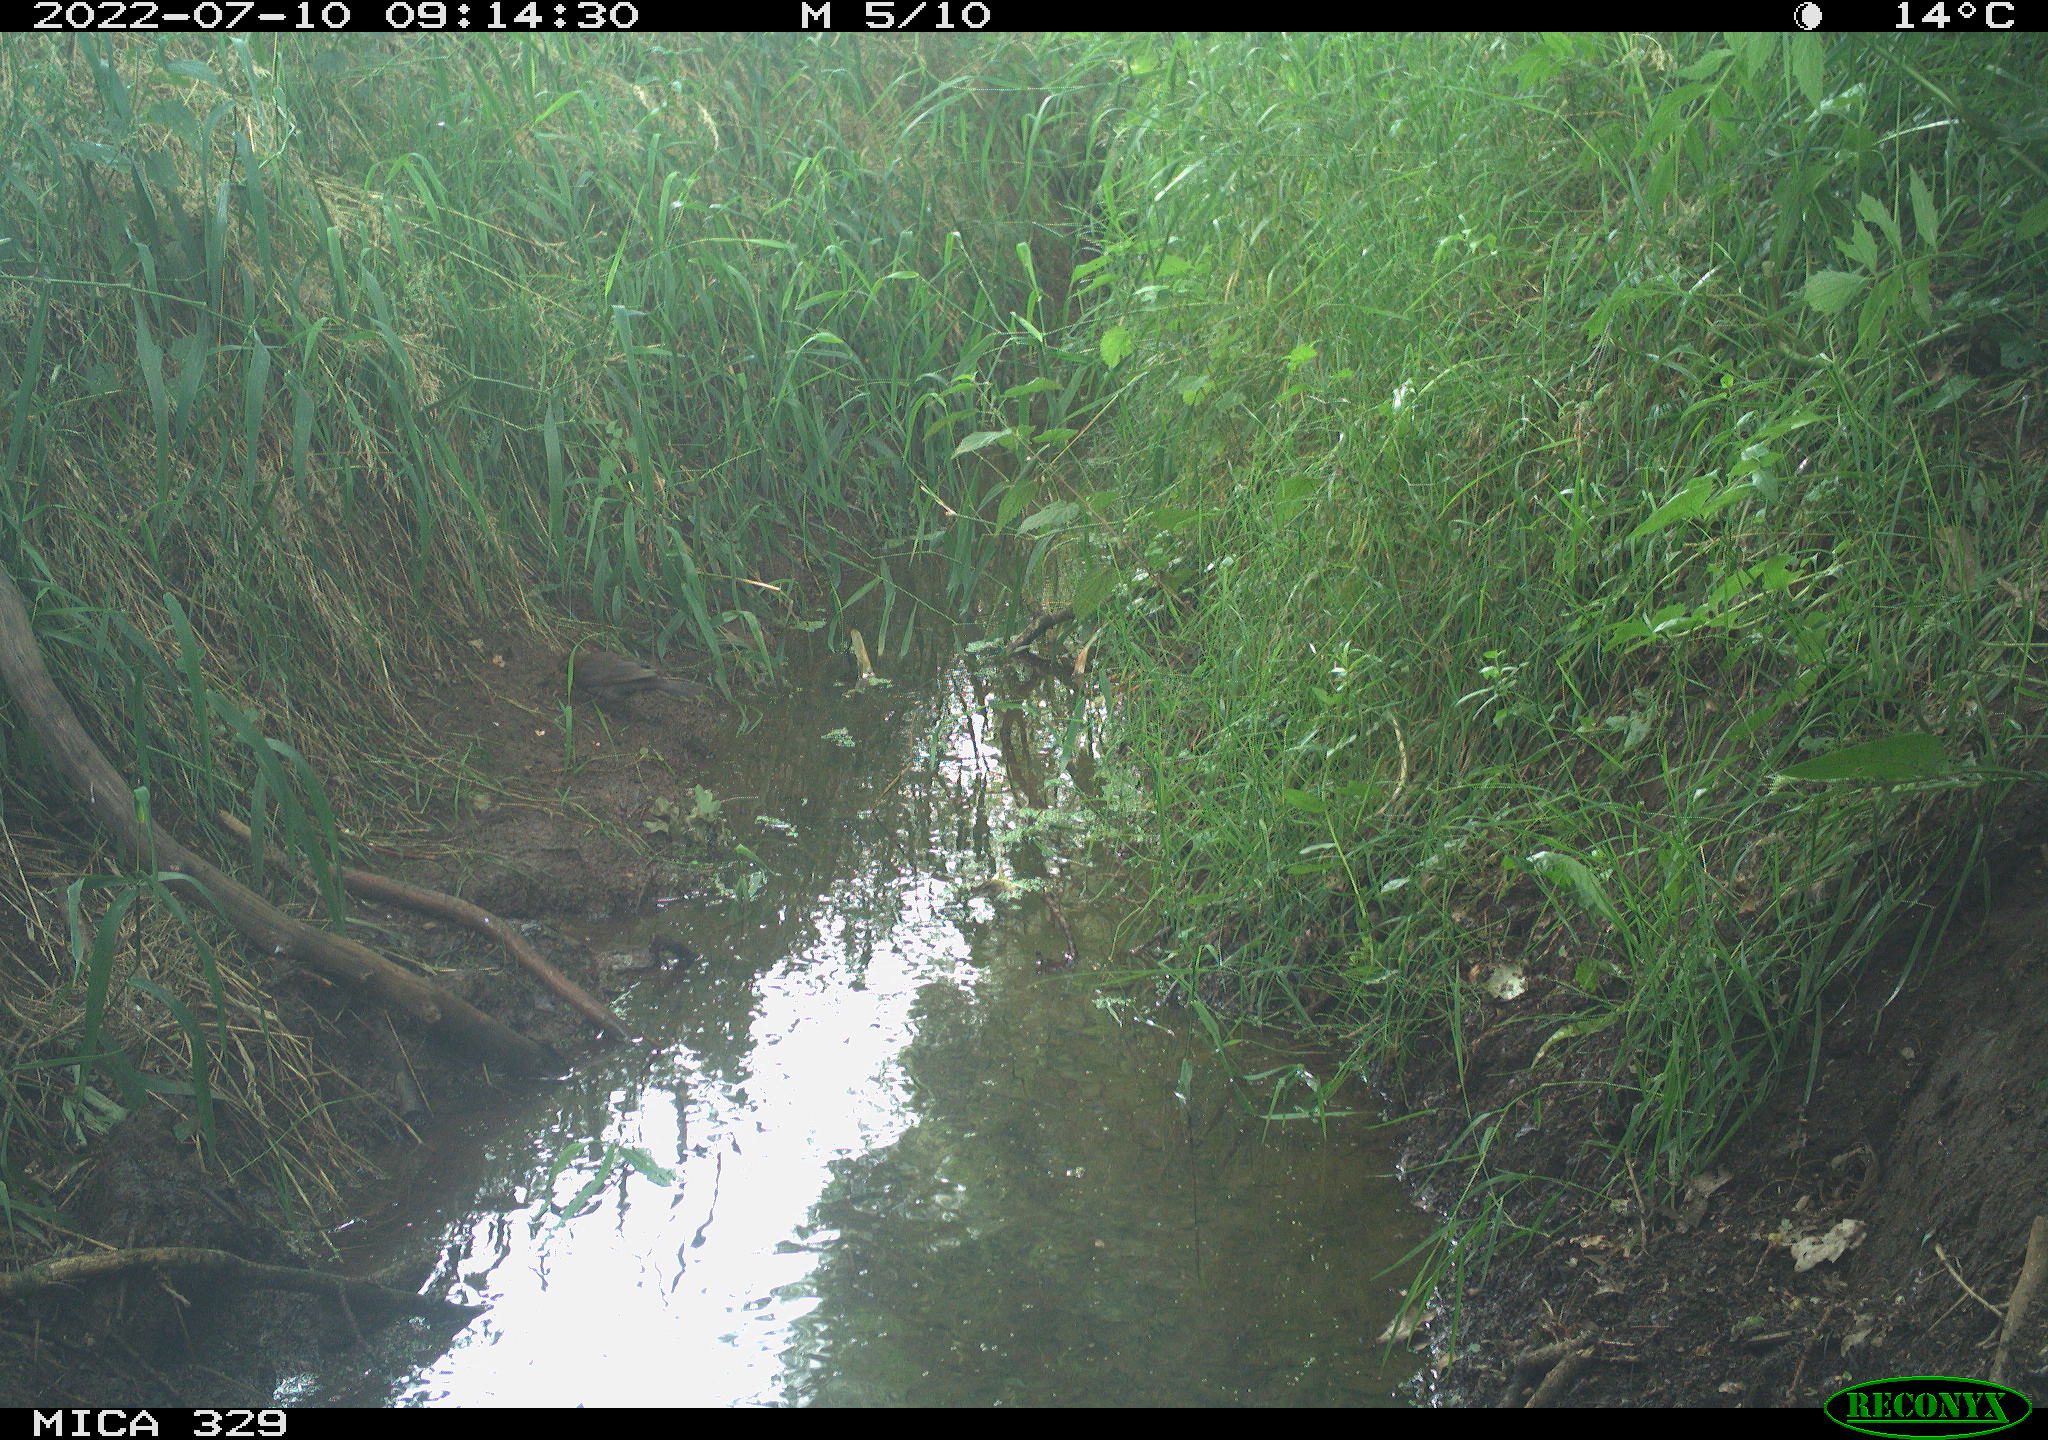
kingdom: Animalia
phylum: Chordata
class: Aves
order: Passeriformes
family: Turdidae
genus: Turdus
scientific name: Turdus merula
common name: Common blackbird
